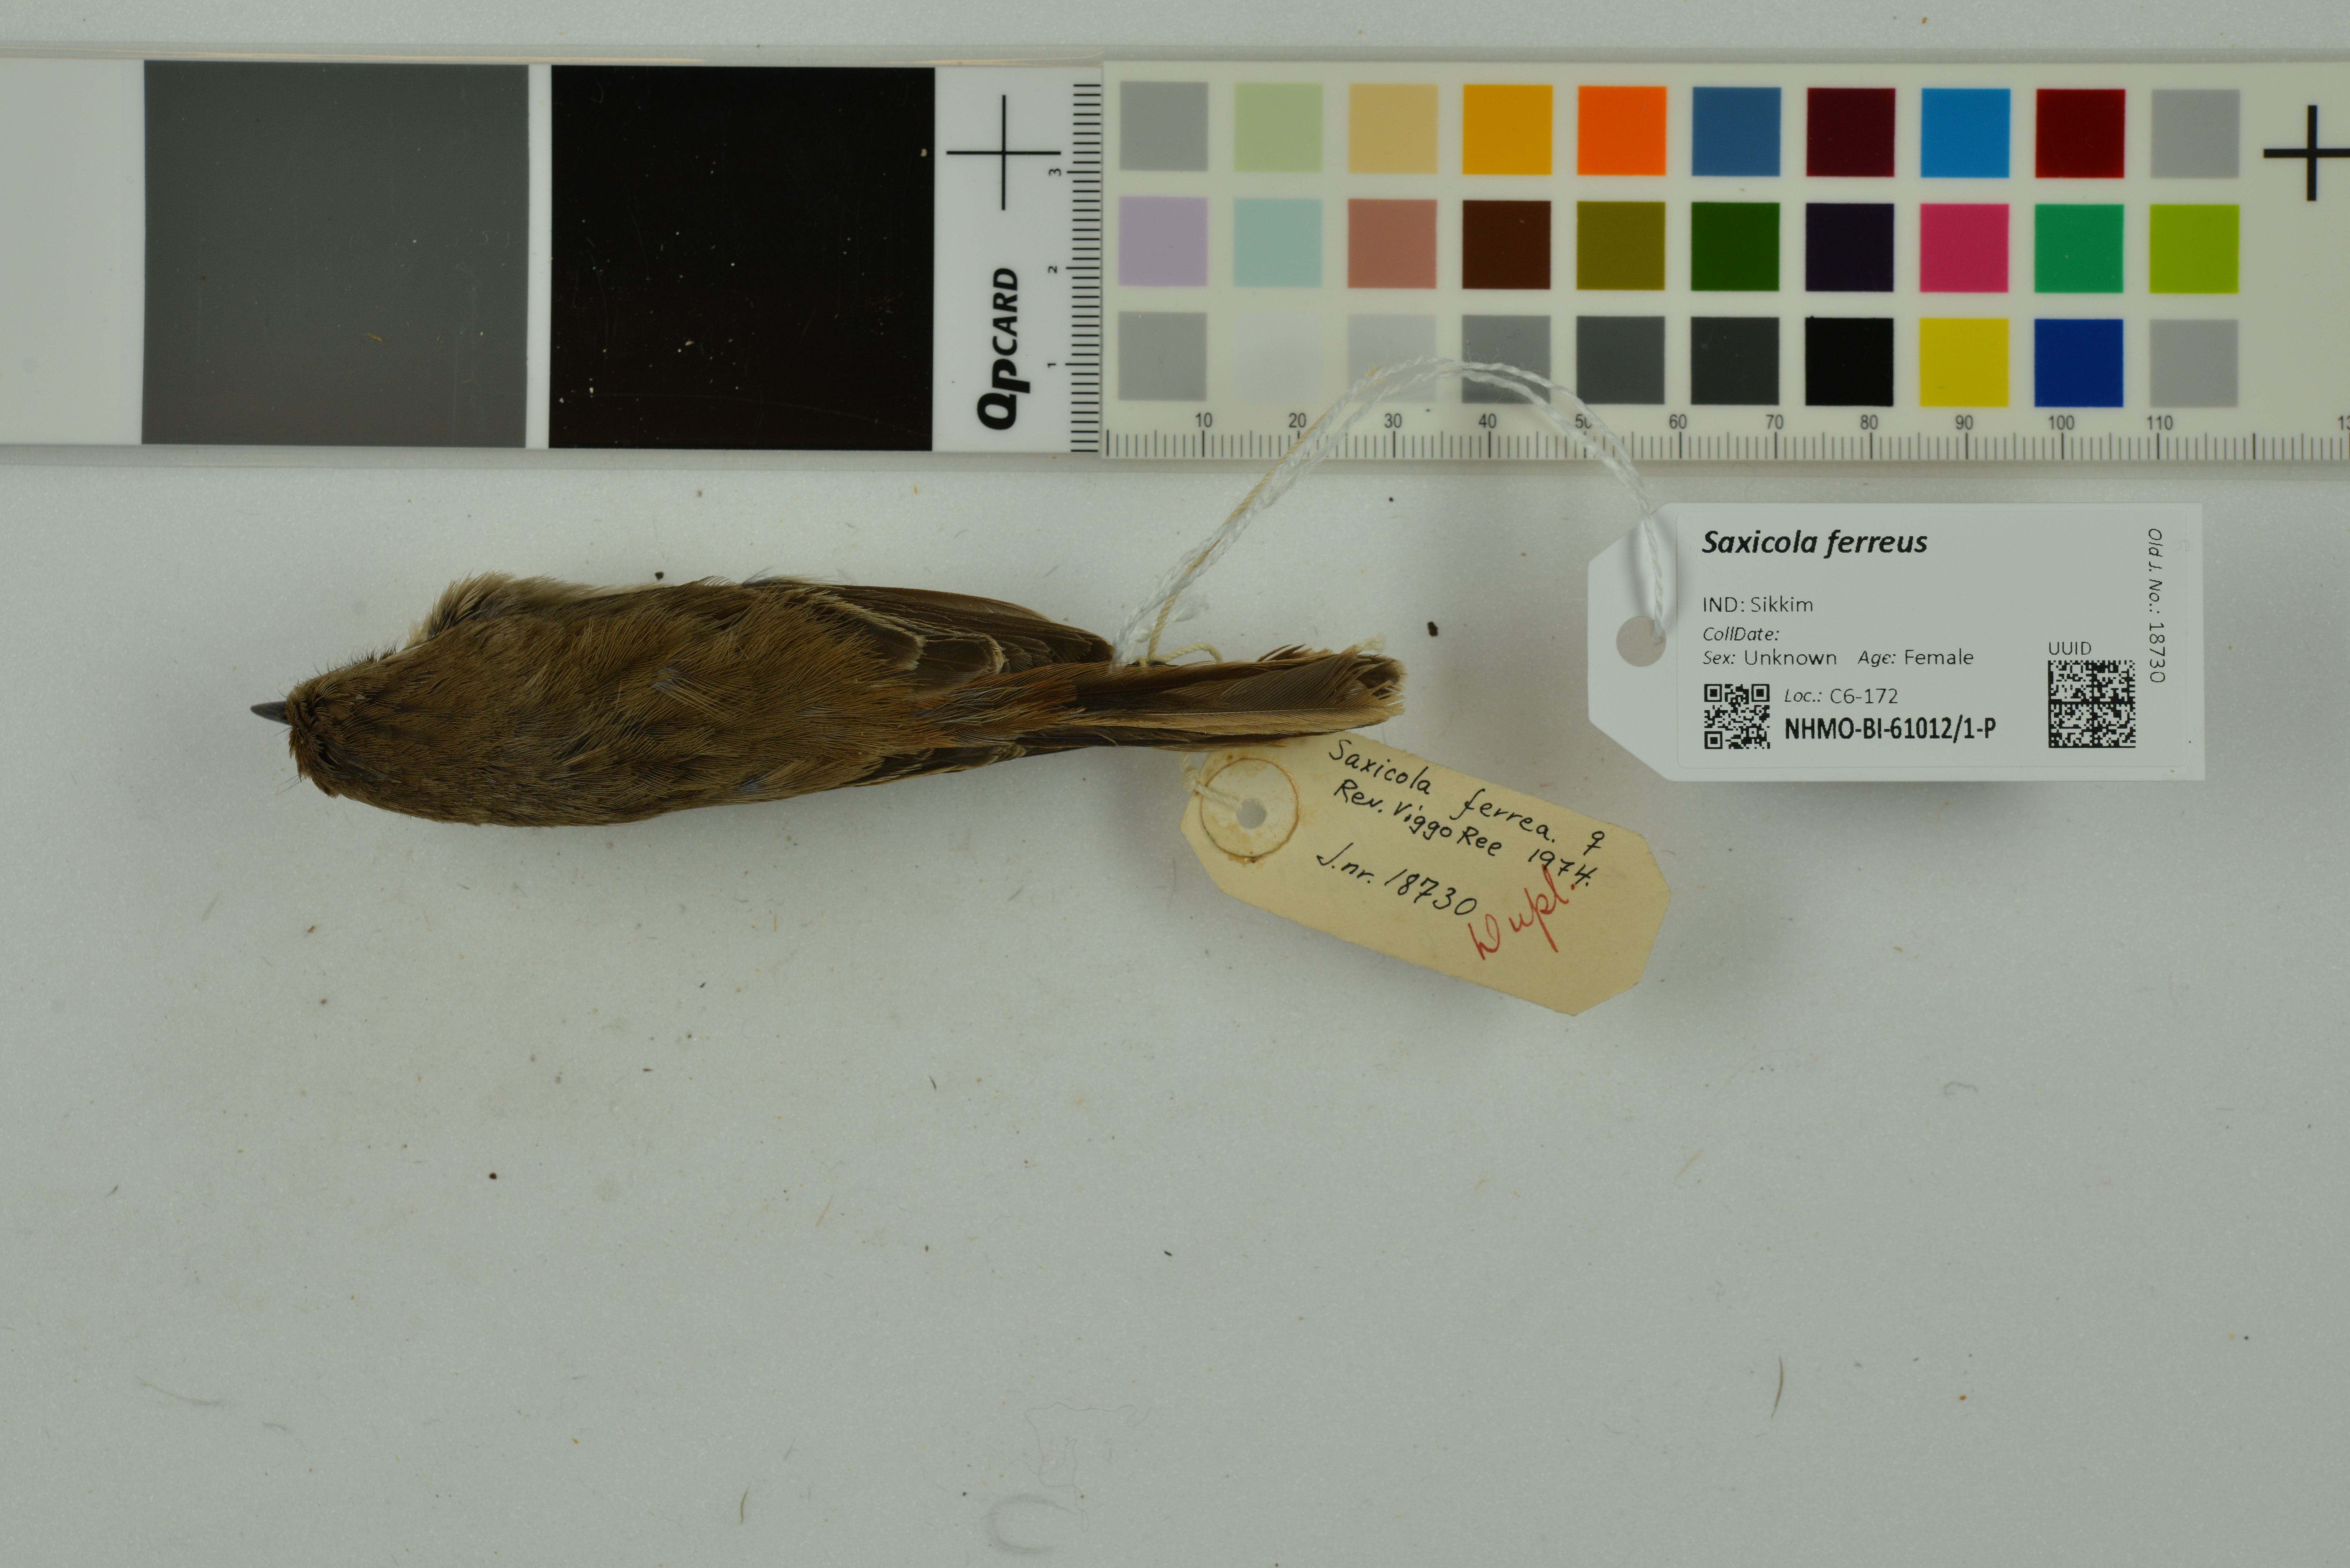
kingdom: Animalia
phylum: Chordata
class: Aves
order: Passeriformes
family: Muscicapidae
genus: Saxicola
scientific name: Saxicola ferreus
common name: Grey bush chat
